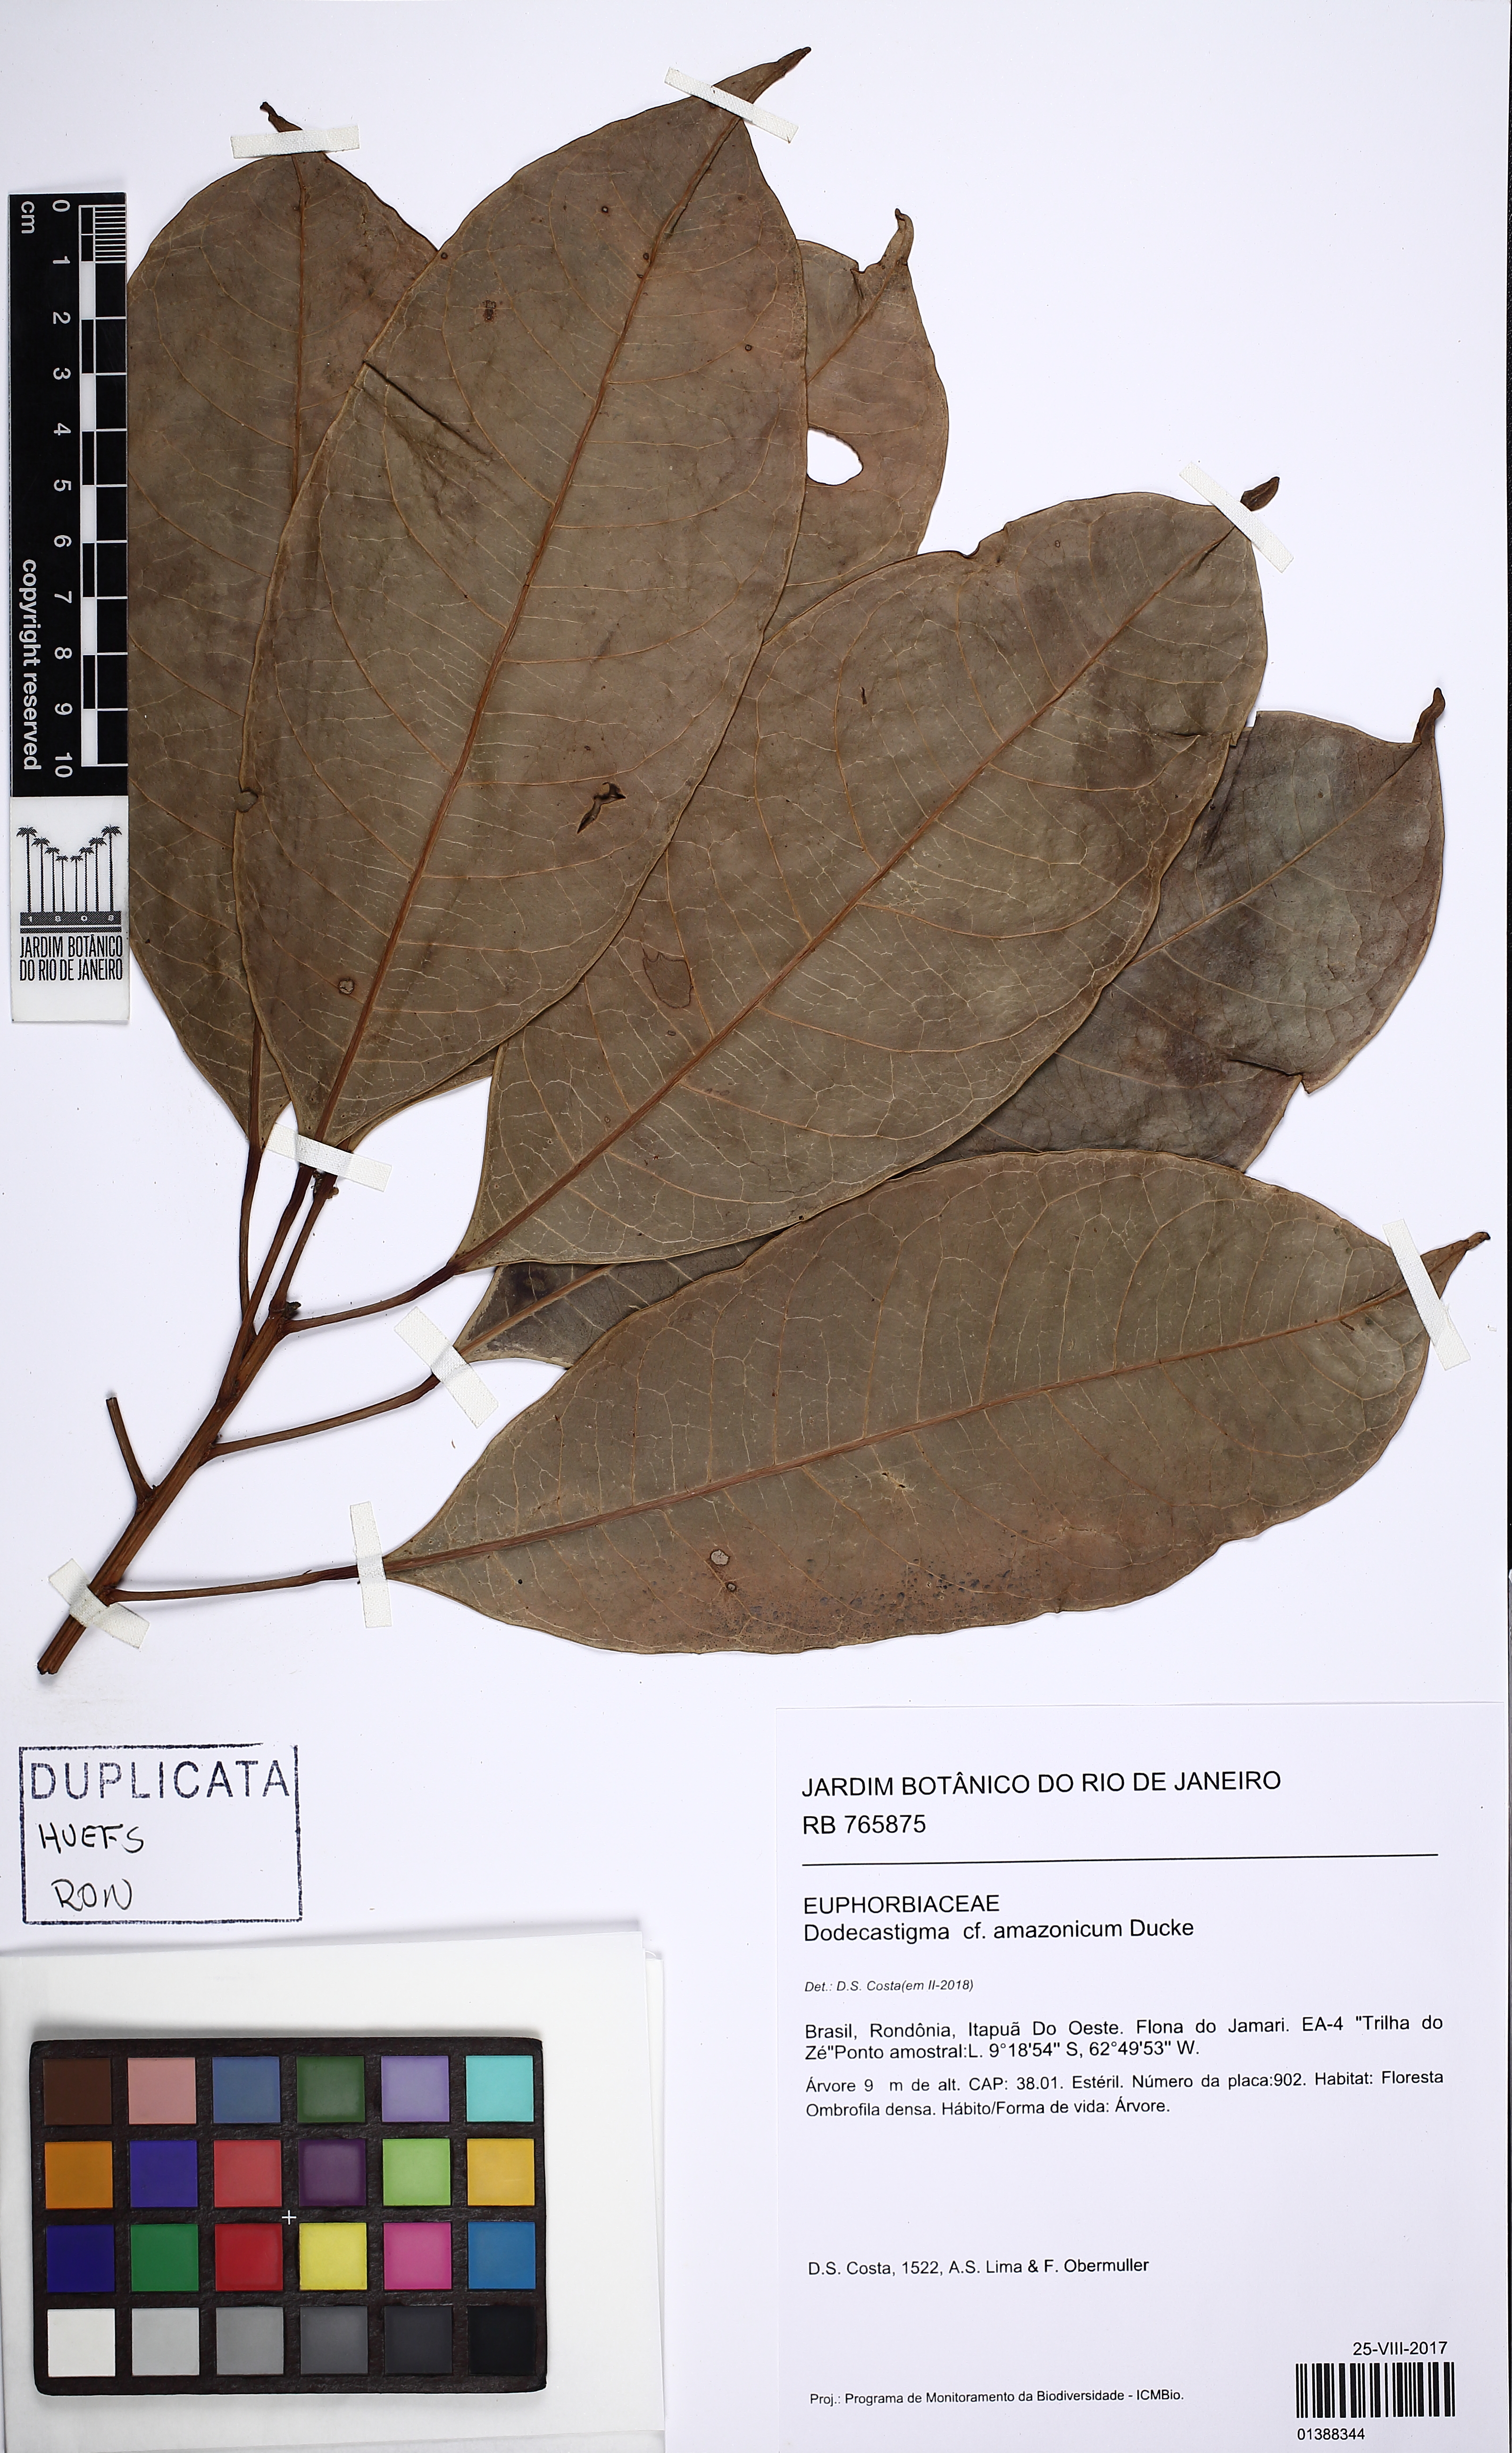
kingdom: Plantae
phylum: Tracheophyta
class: Magnoliopsida
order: Malpighiales
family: Euphorbiaceae
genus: Dodecastigma
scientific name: Dodecastigma amazonicum
